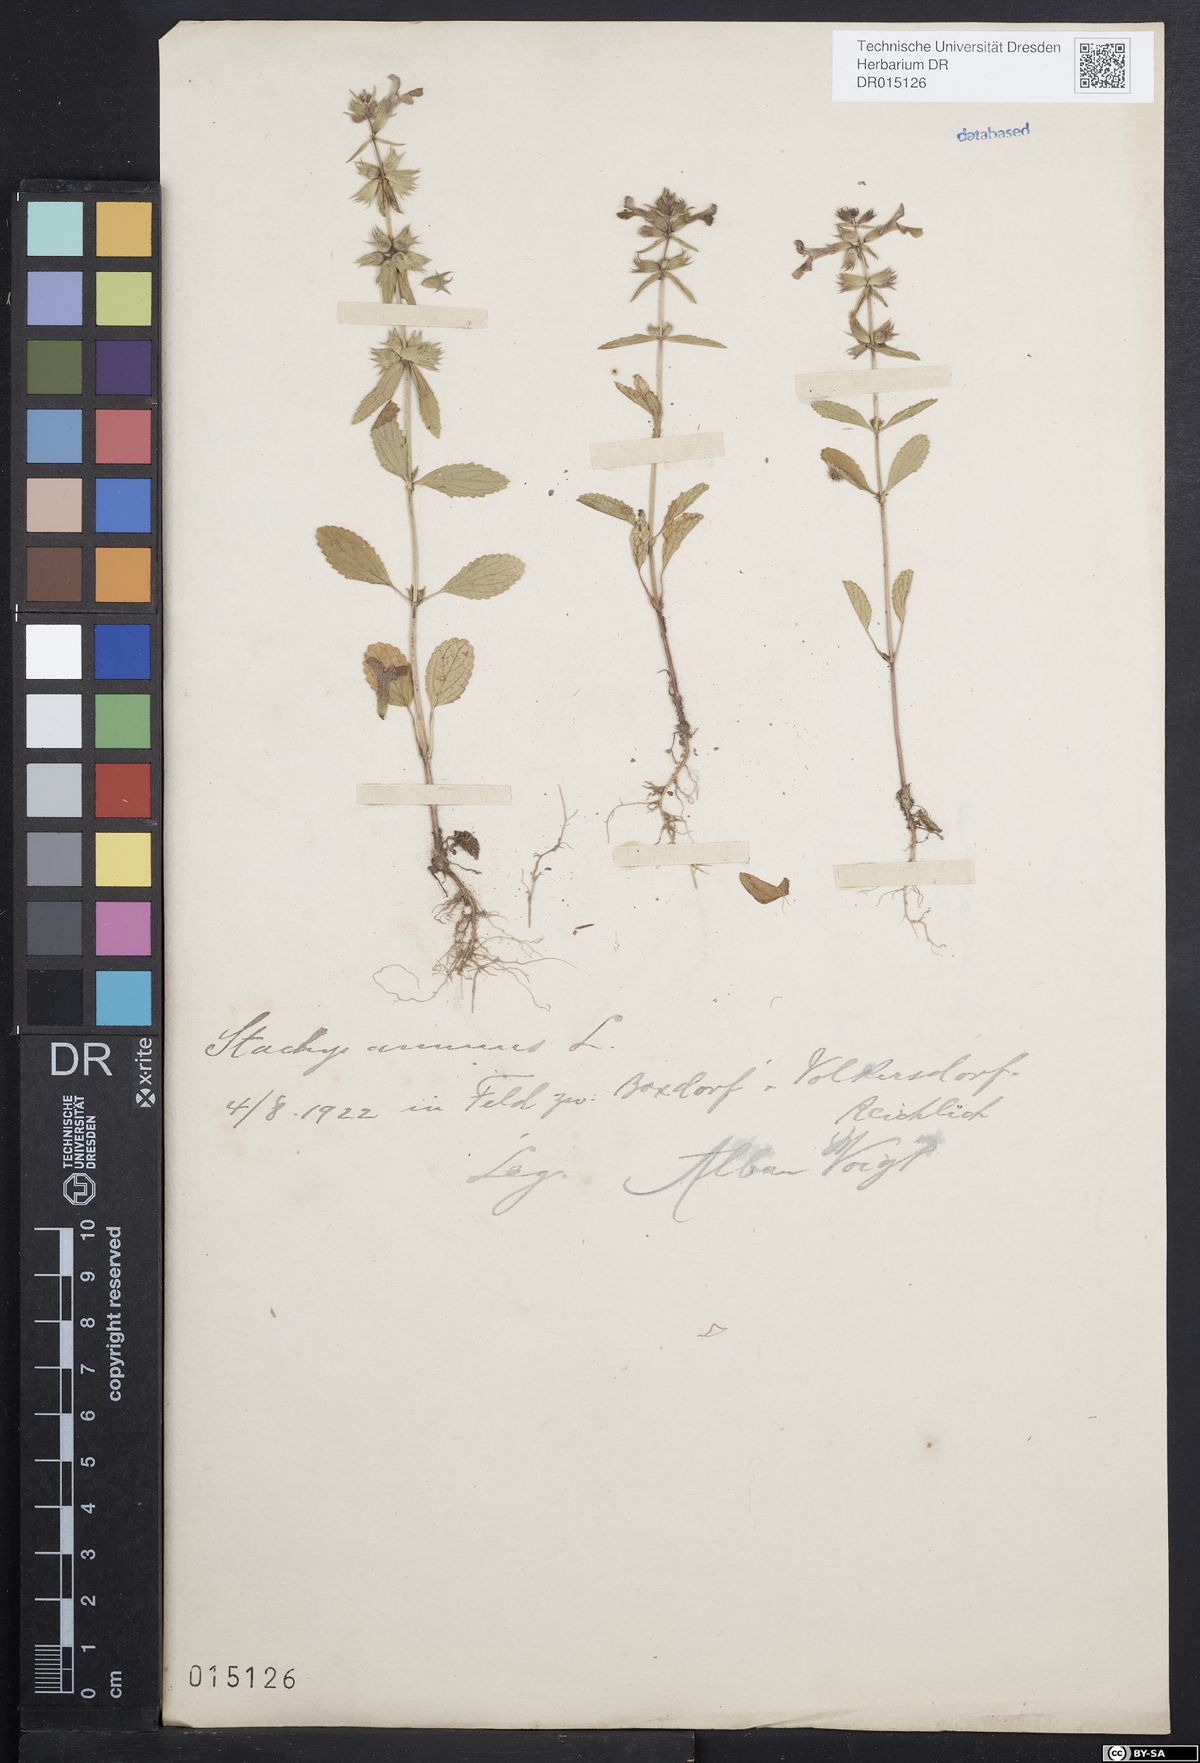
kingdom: Plantae
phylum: Tracheophyta
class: Magnoliopsida
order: Lamiales
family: Lamiaceae
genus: Stachys
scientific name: Stachys annua
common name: Annual yellow-woundwort
